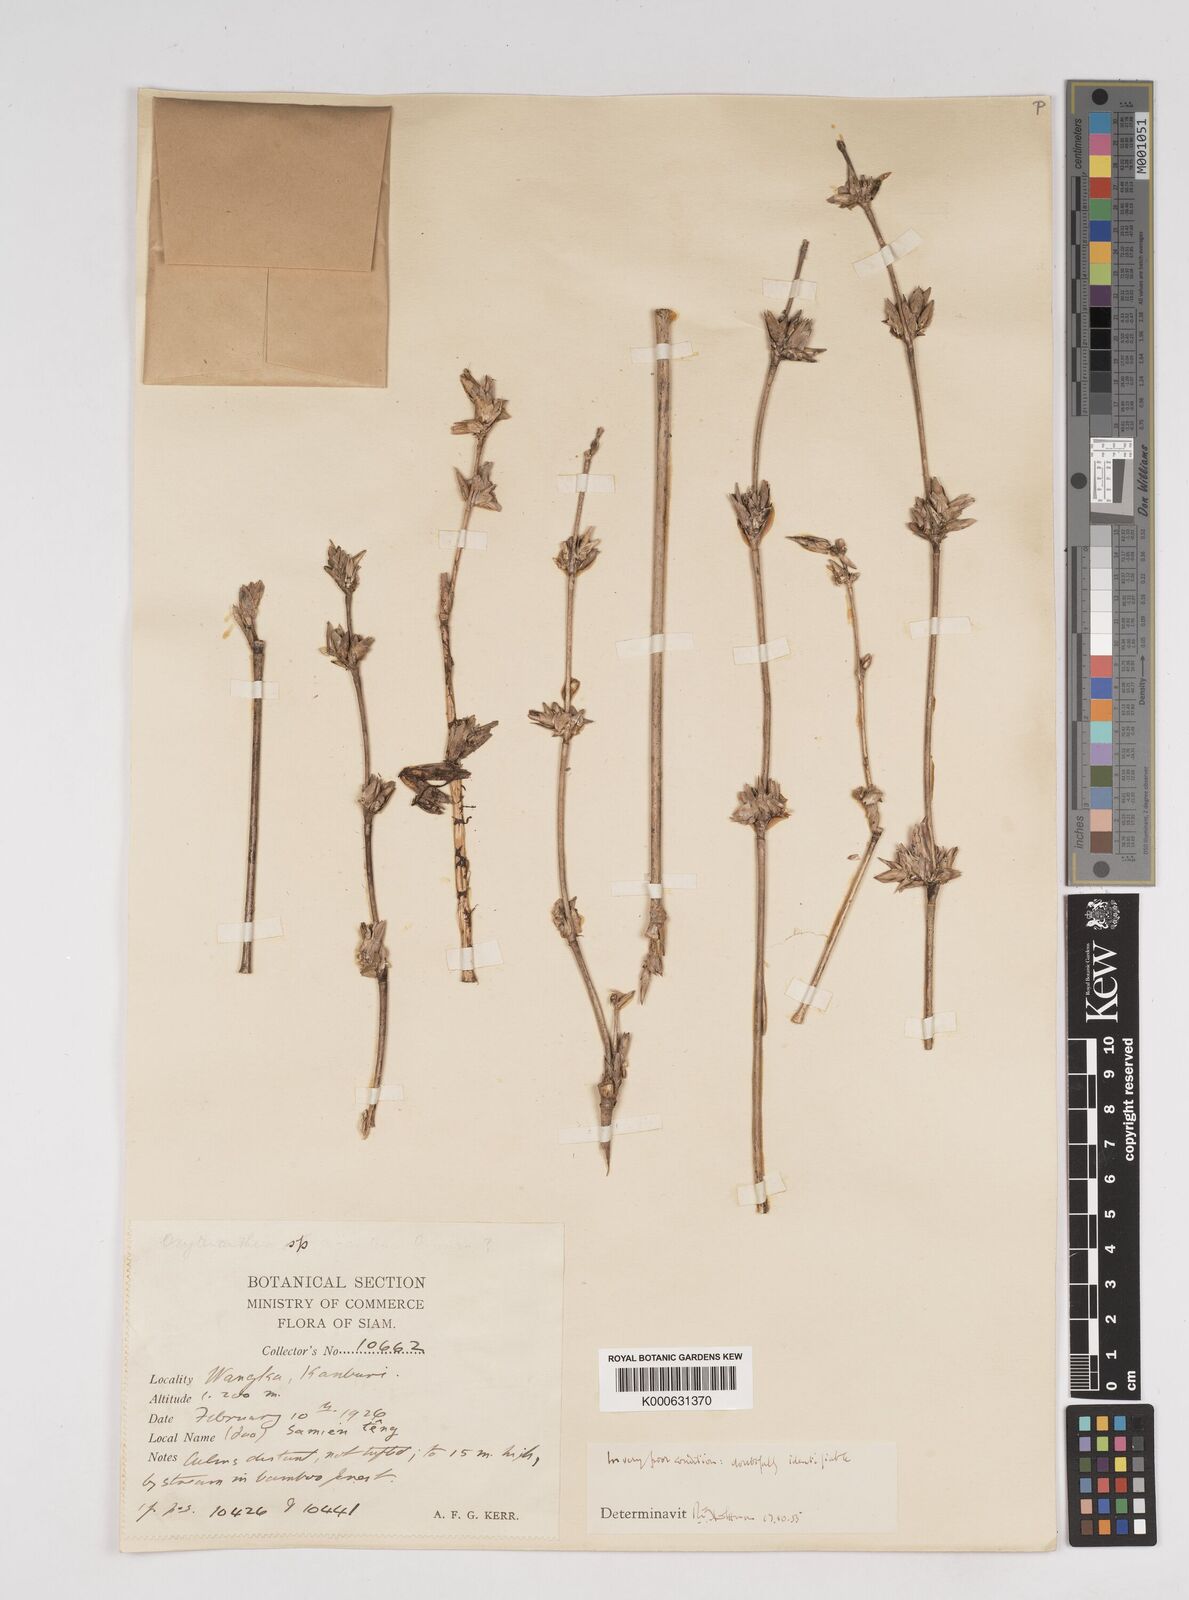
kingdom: Plantae
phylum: Tracheophyta
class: Liliopsida
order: Poales
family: Poaceae
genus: Dendrocalamus
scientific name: Dendrocalamus
